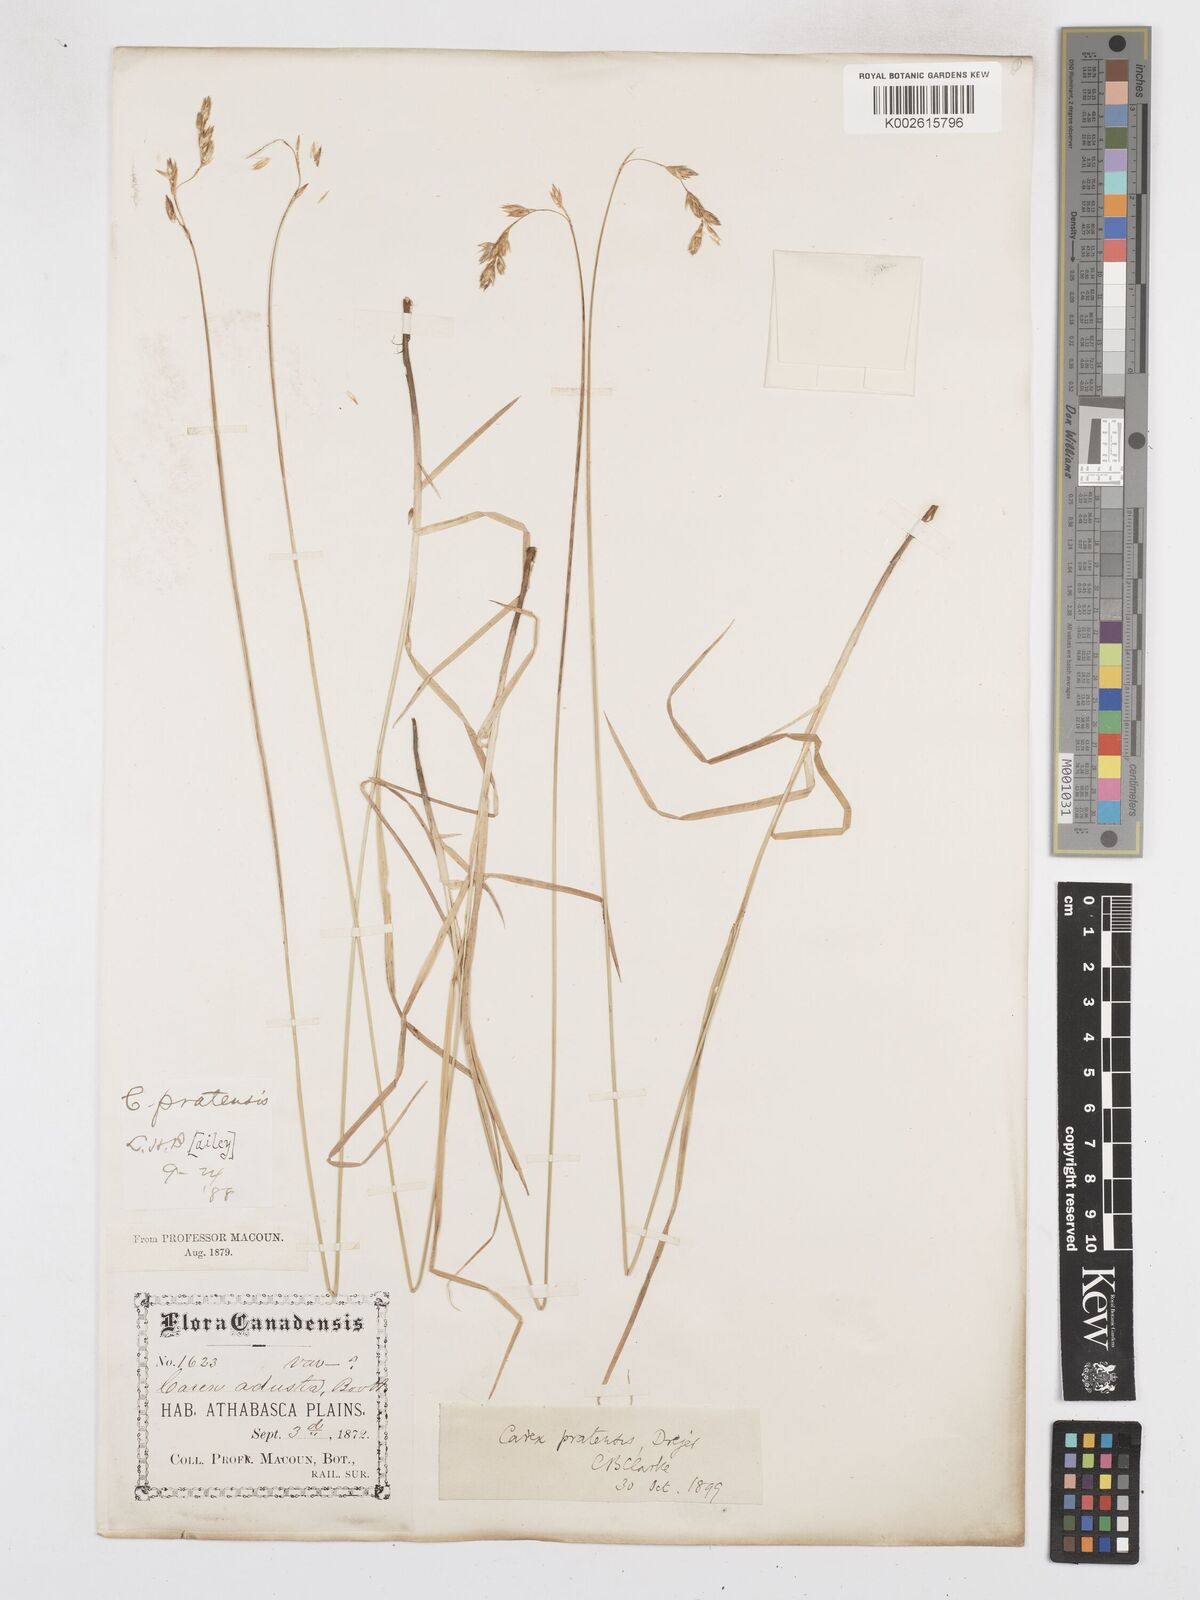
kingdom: Plantae
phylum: Tracheophyta
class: Liliopsida
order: Poales
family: Cyperaceae
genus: Carex
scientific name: Carex praticola
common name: Large-fruited oval sedge
